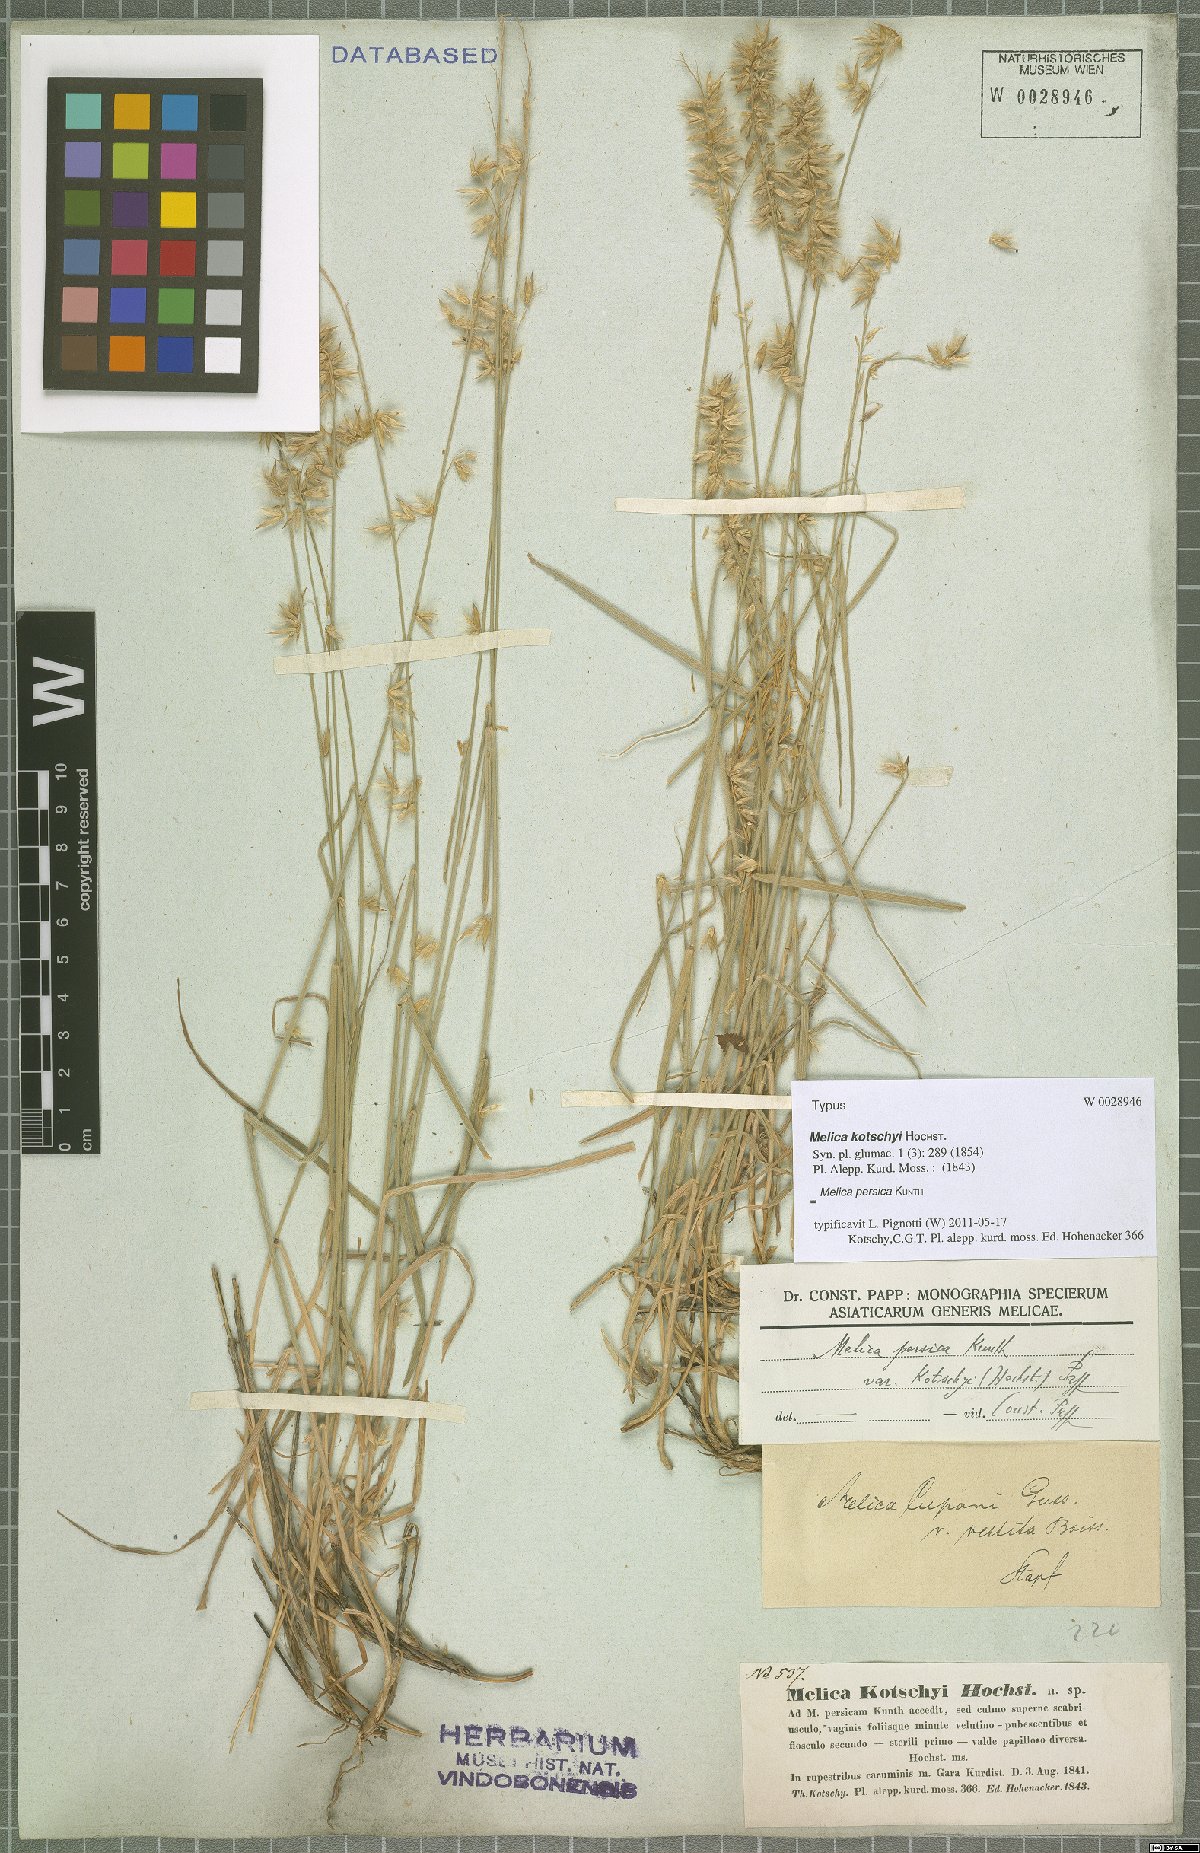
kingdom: Plantae
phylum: Tracheophyta
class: Liliopsida
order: Poales
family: Poaceae
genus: Melica
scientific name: Melica persica
